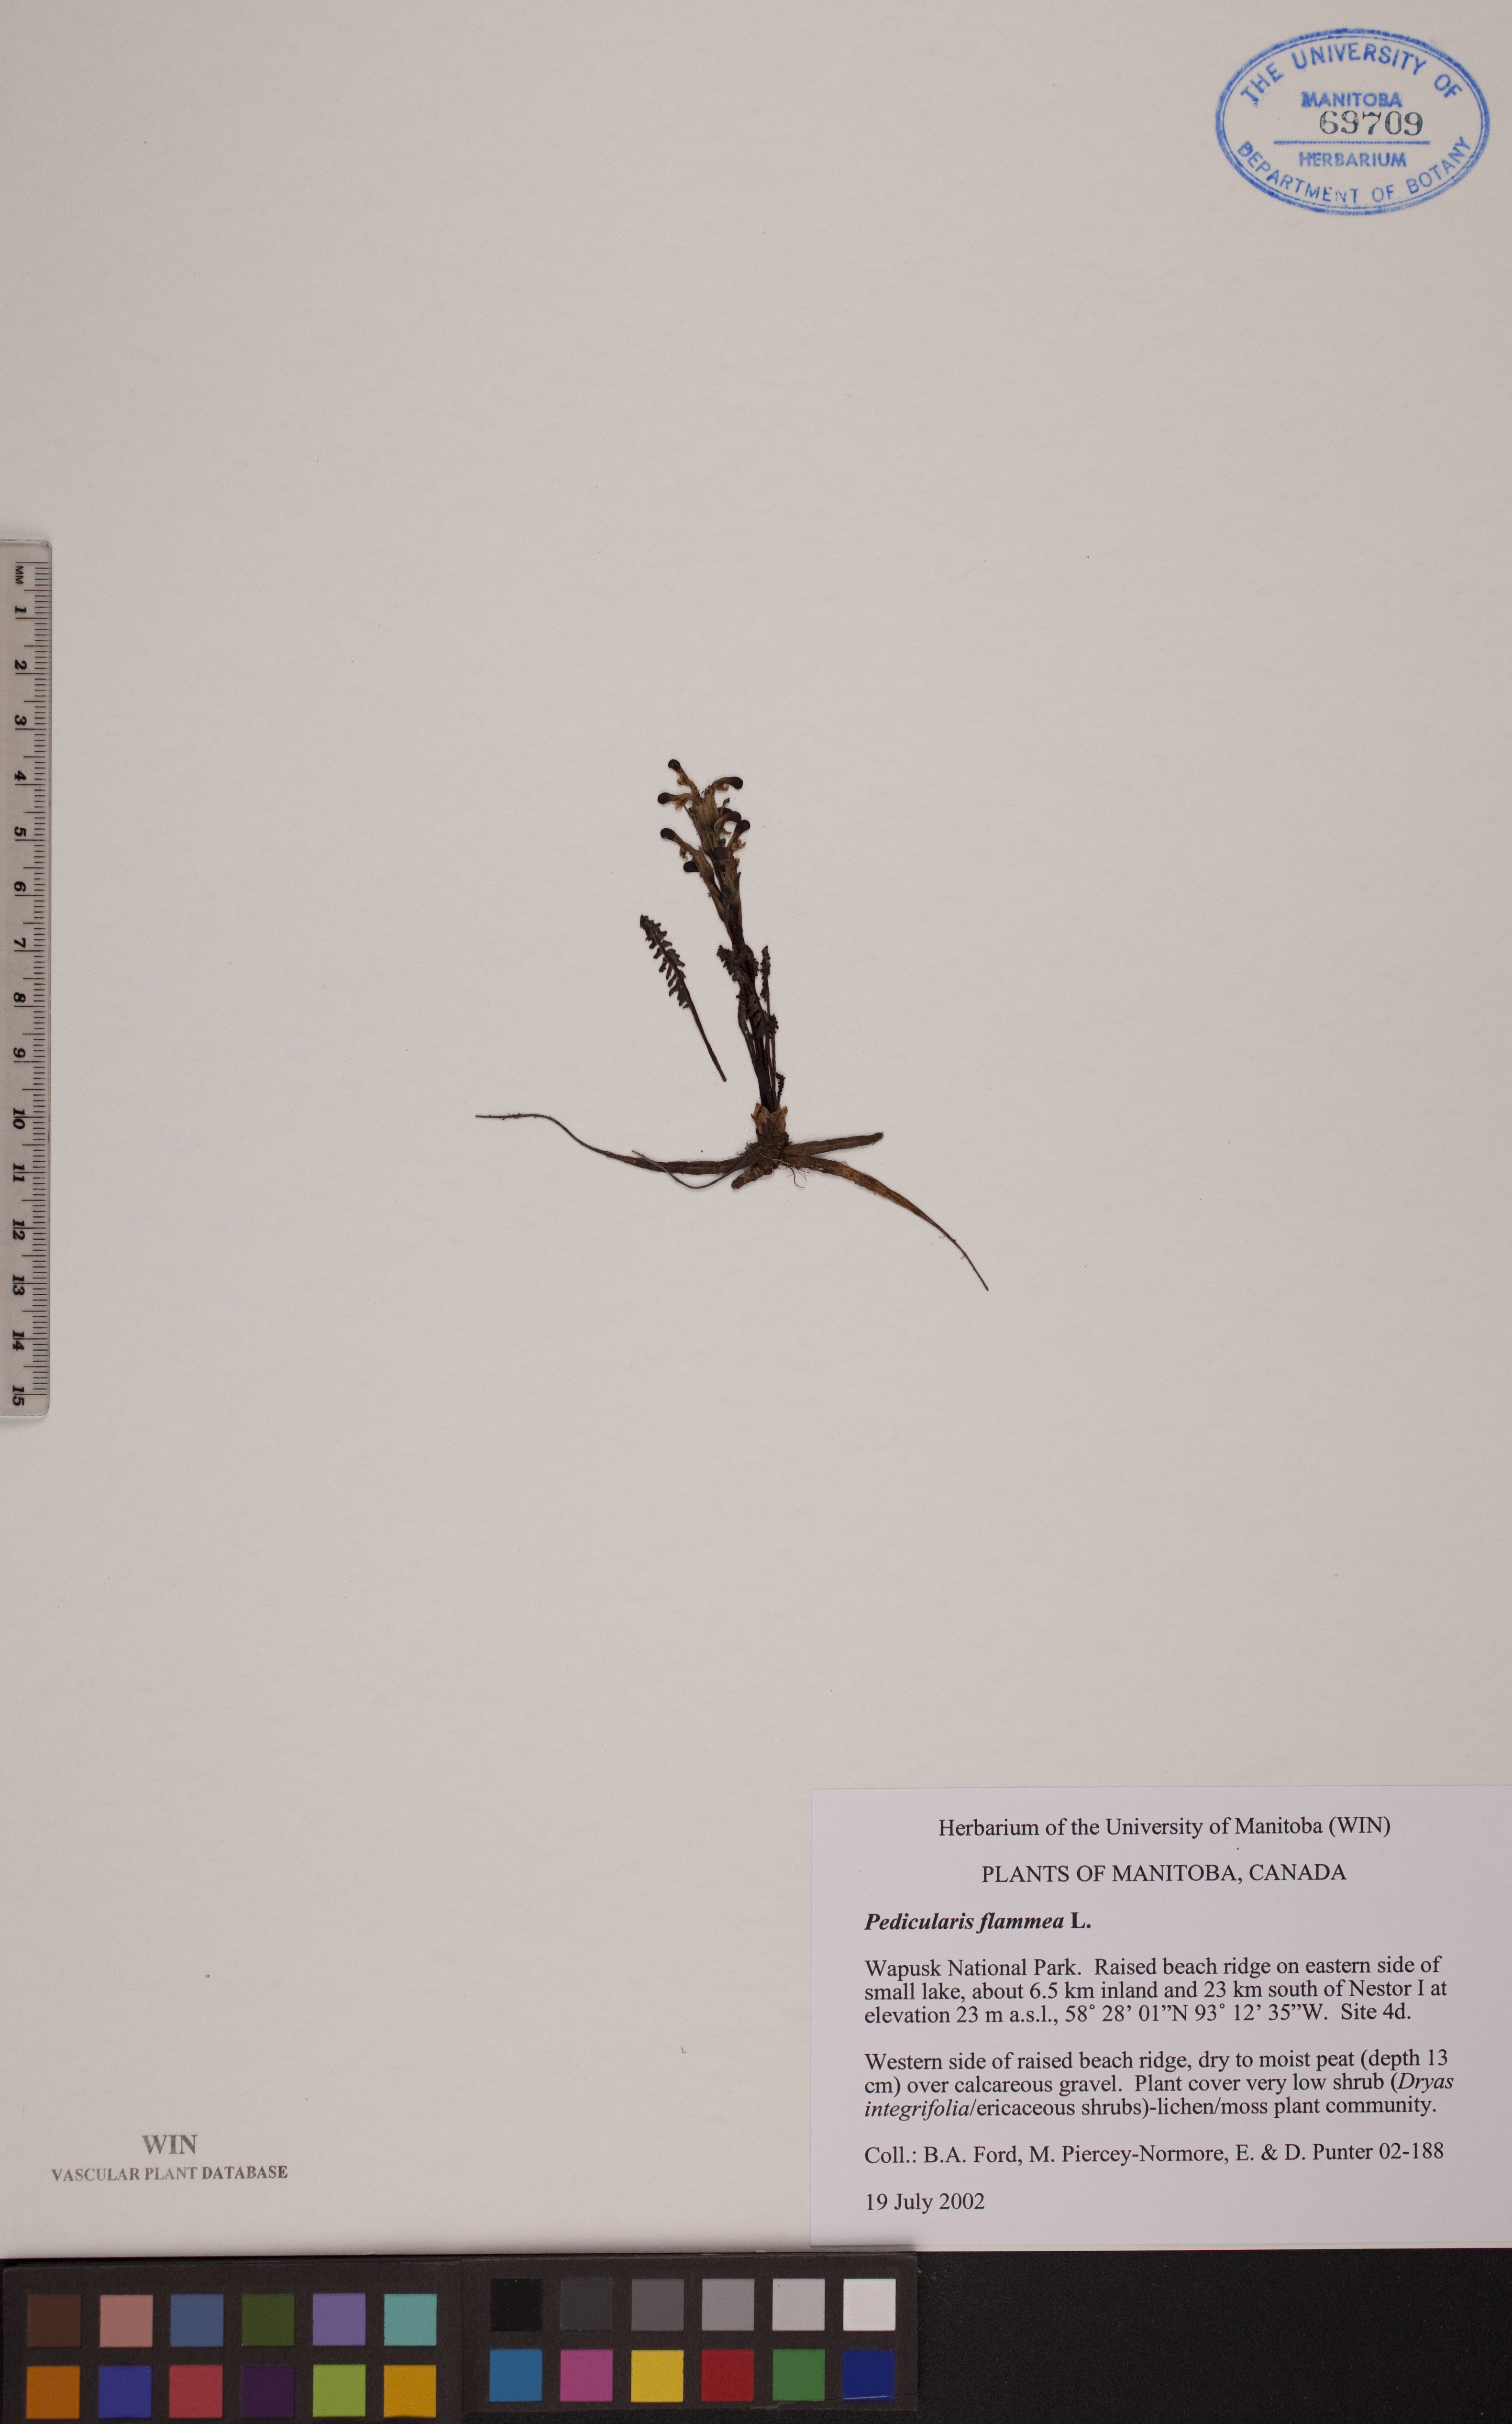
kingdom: Plantae
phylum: Tracheophyta
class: Magnoliopsida
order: Lamiales
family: Orobanchaceae
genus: Pedicularis
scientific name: Pedicularis flammea
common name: Flame-coloured lousewort
